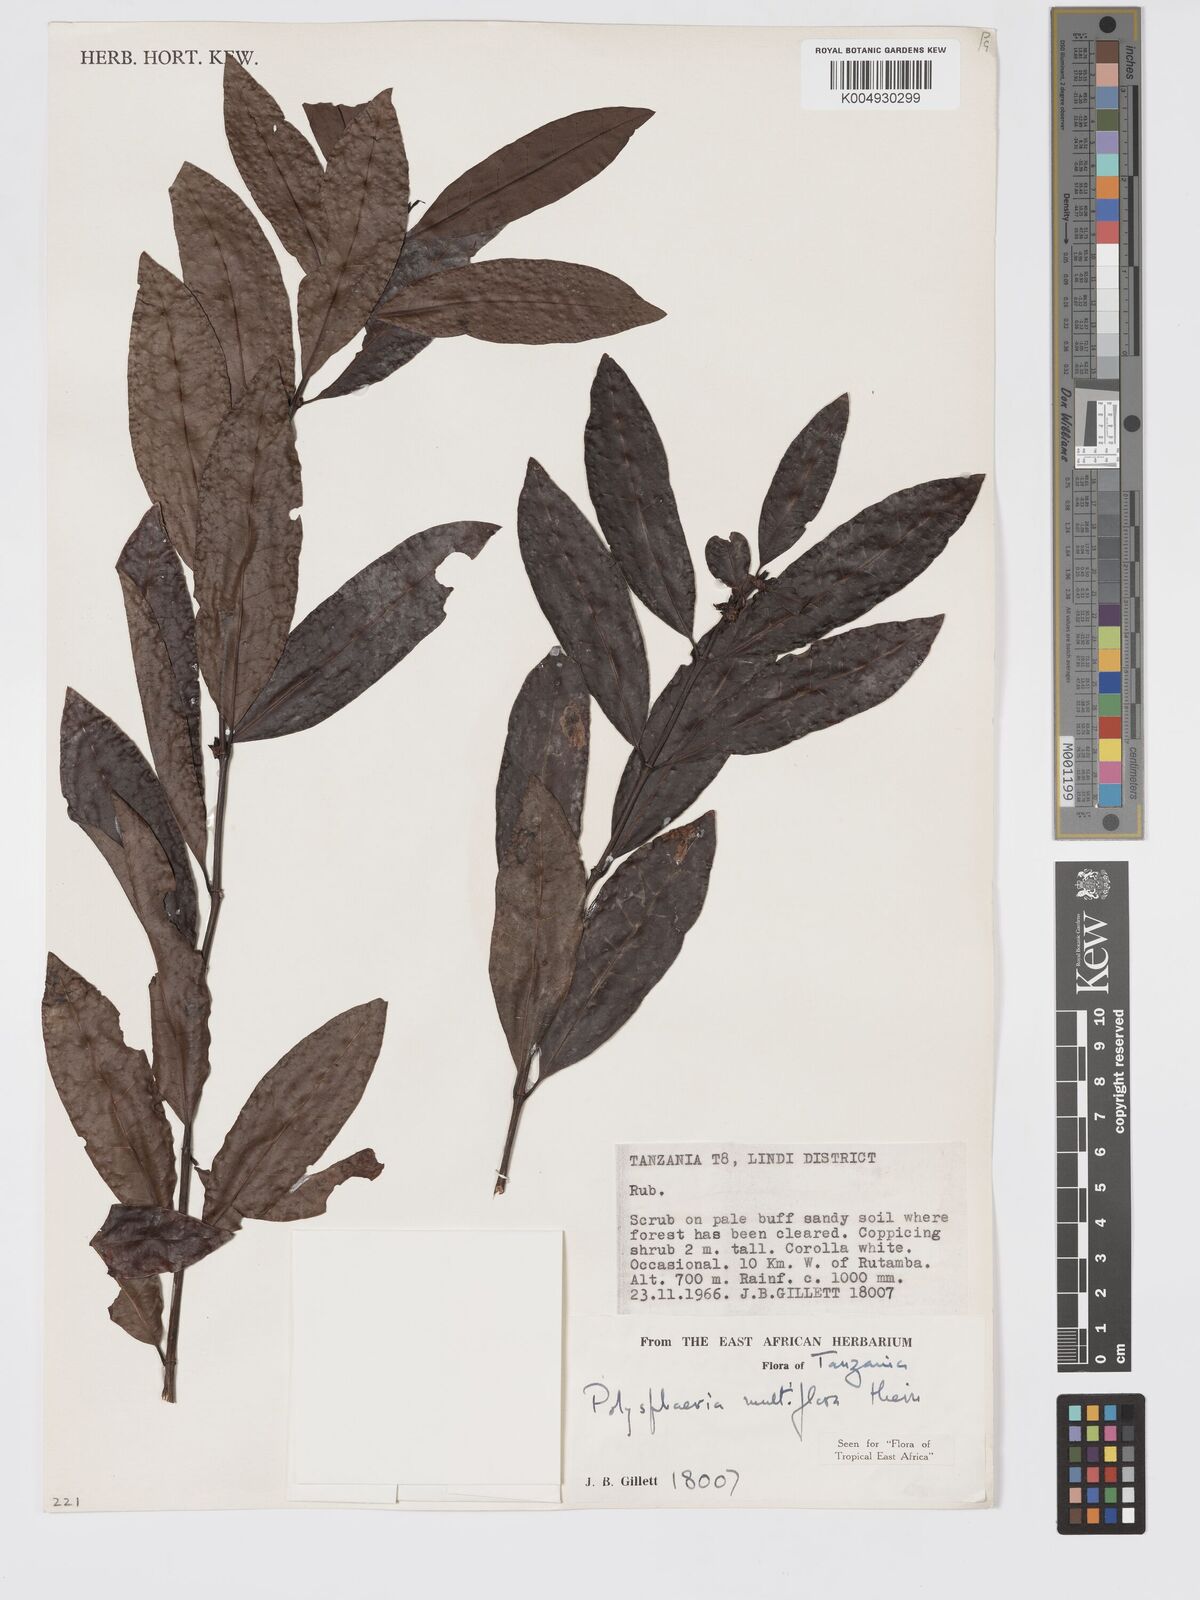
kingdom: Plantae
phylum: Tracheophyta
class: Magnoliopsida
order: Gentianales
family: Rubiaceae
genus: Polysphaeria
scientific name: Polysphaeria multiflora
